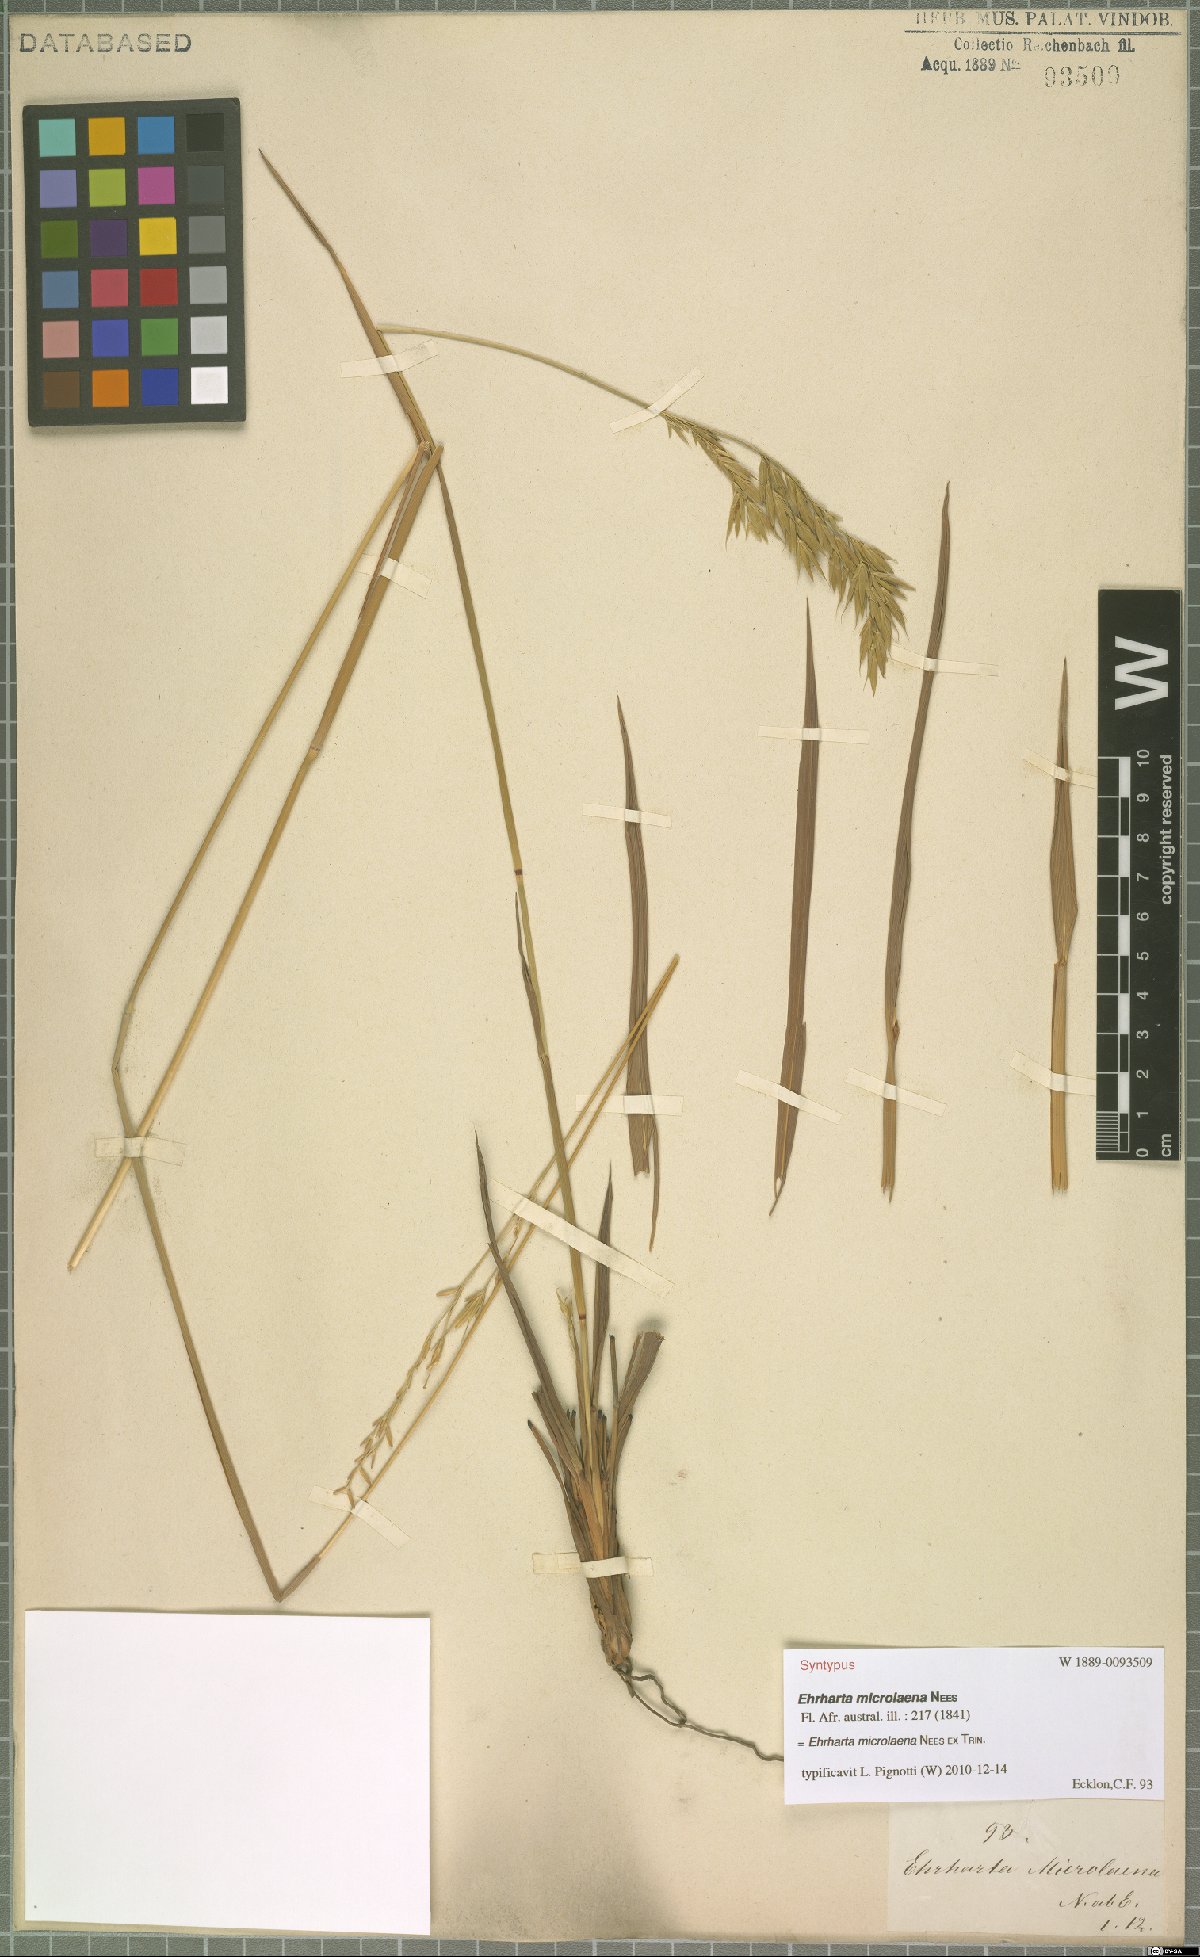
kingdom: Plantae
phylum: Tracheophyta
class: Liliopsida
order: Poales
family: Poaceae
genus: Ehrharta
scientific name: Ehrharta microlaena
